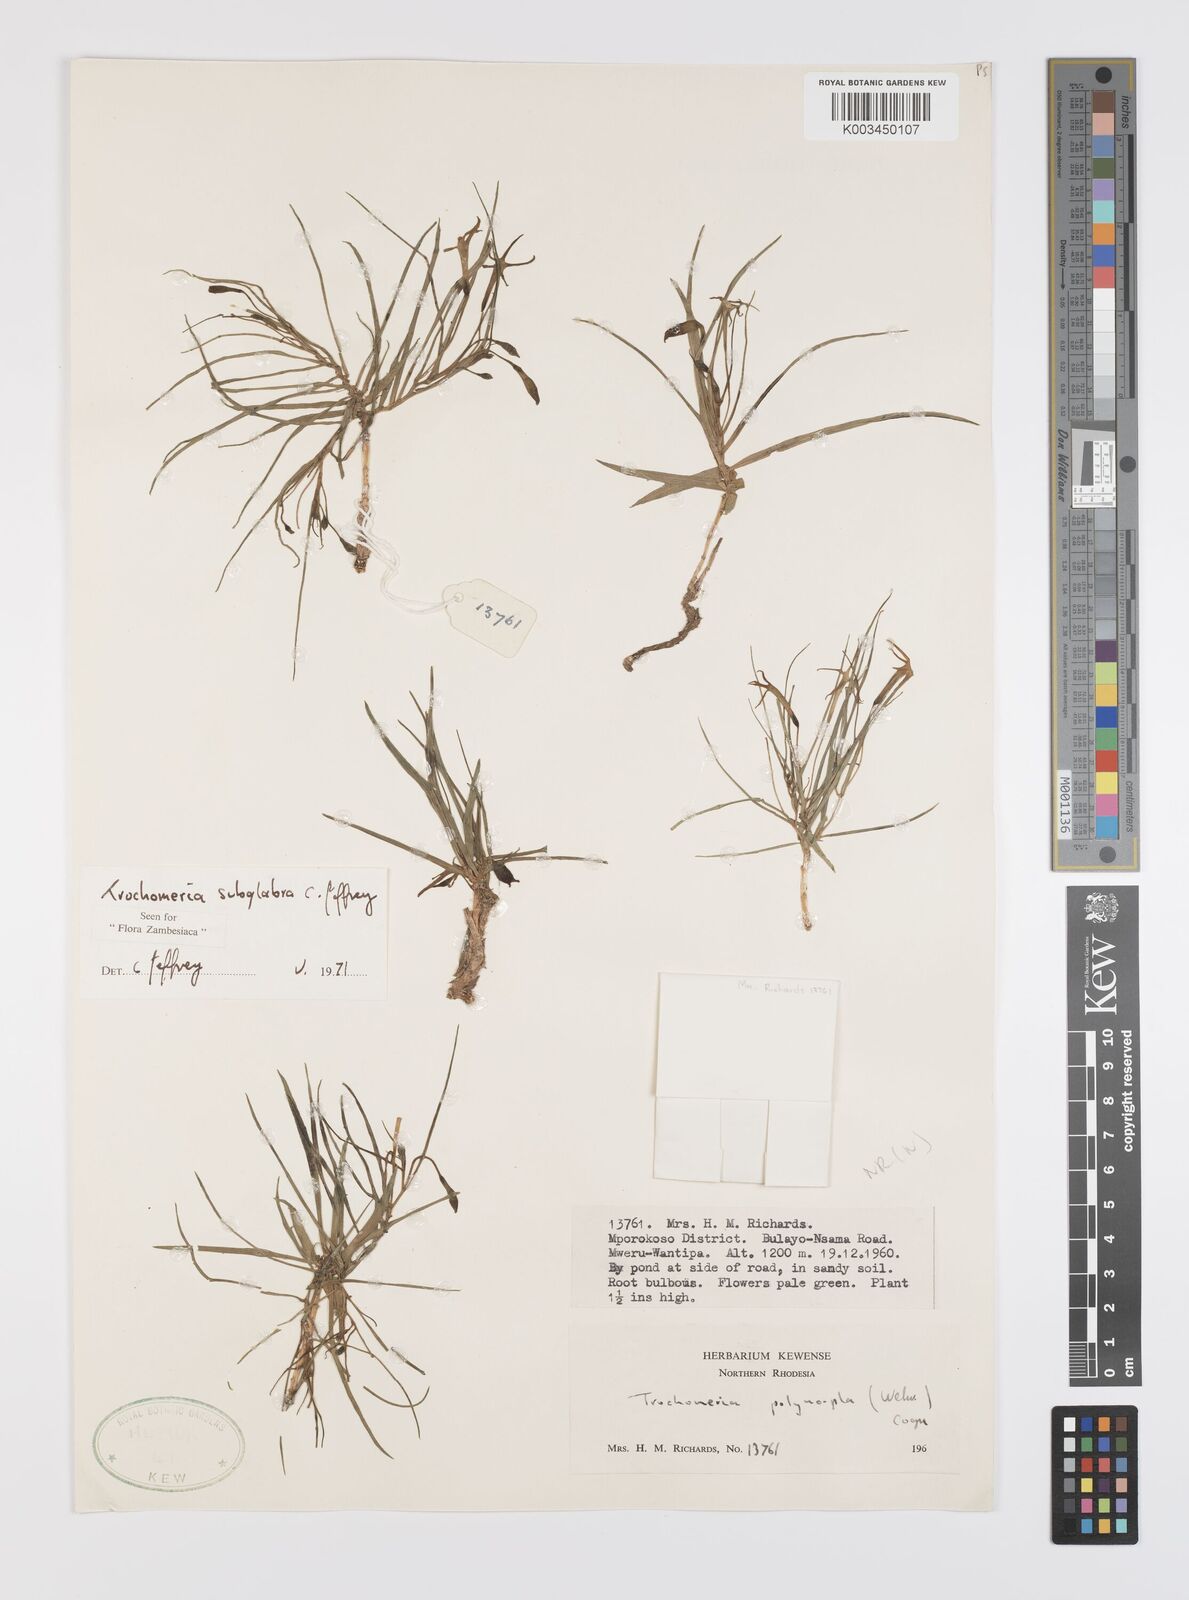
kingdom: Plantae
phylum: Tracheophyta
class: Magnoliopsida
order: Cucurbitales
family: Cucurbitaceae
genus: Trochomeria
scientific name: Trochomeria subglabra
